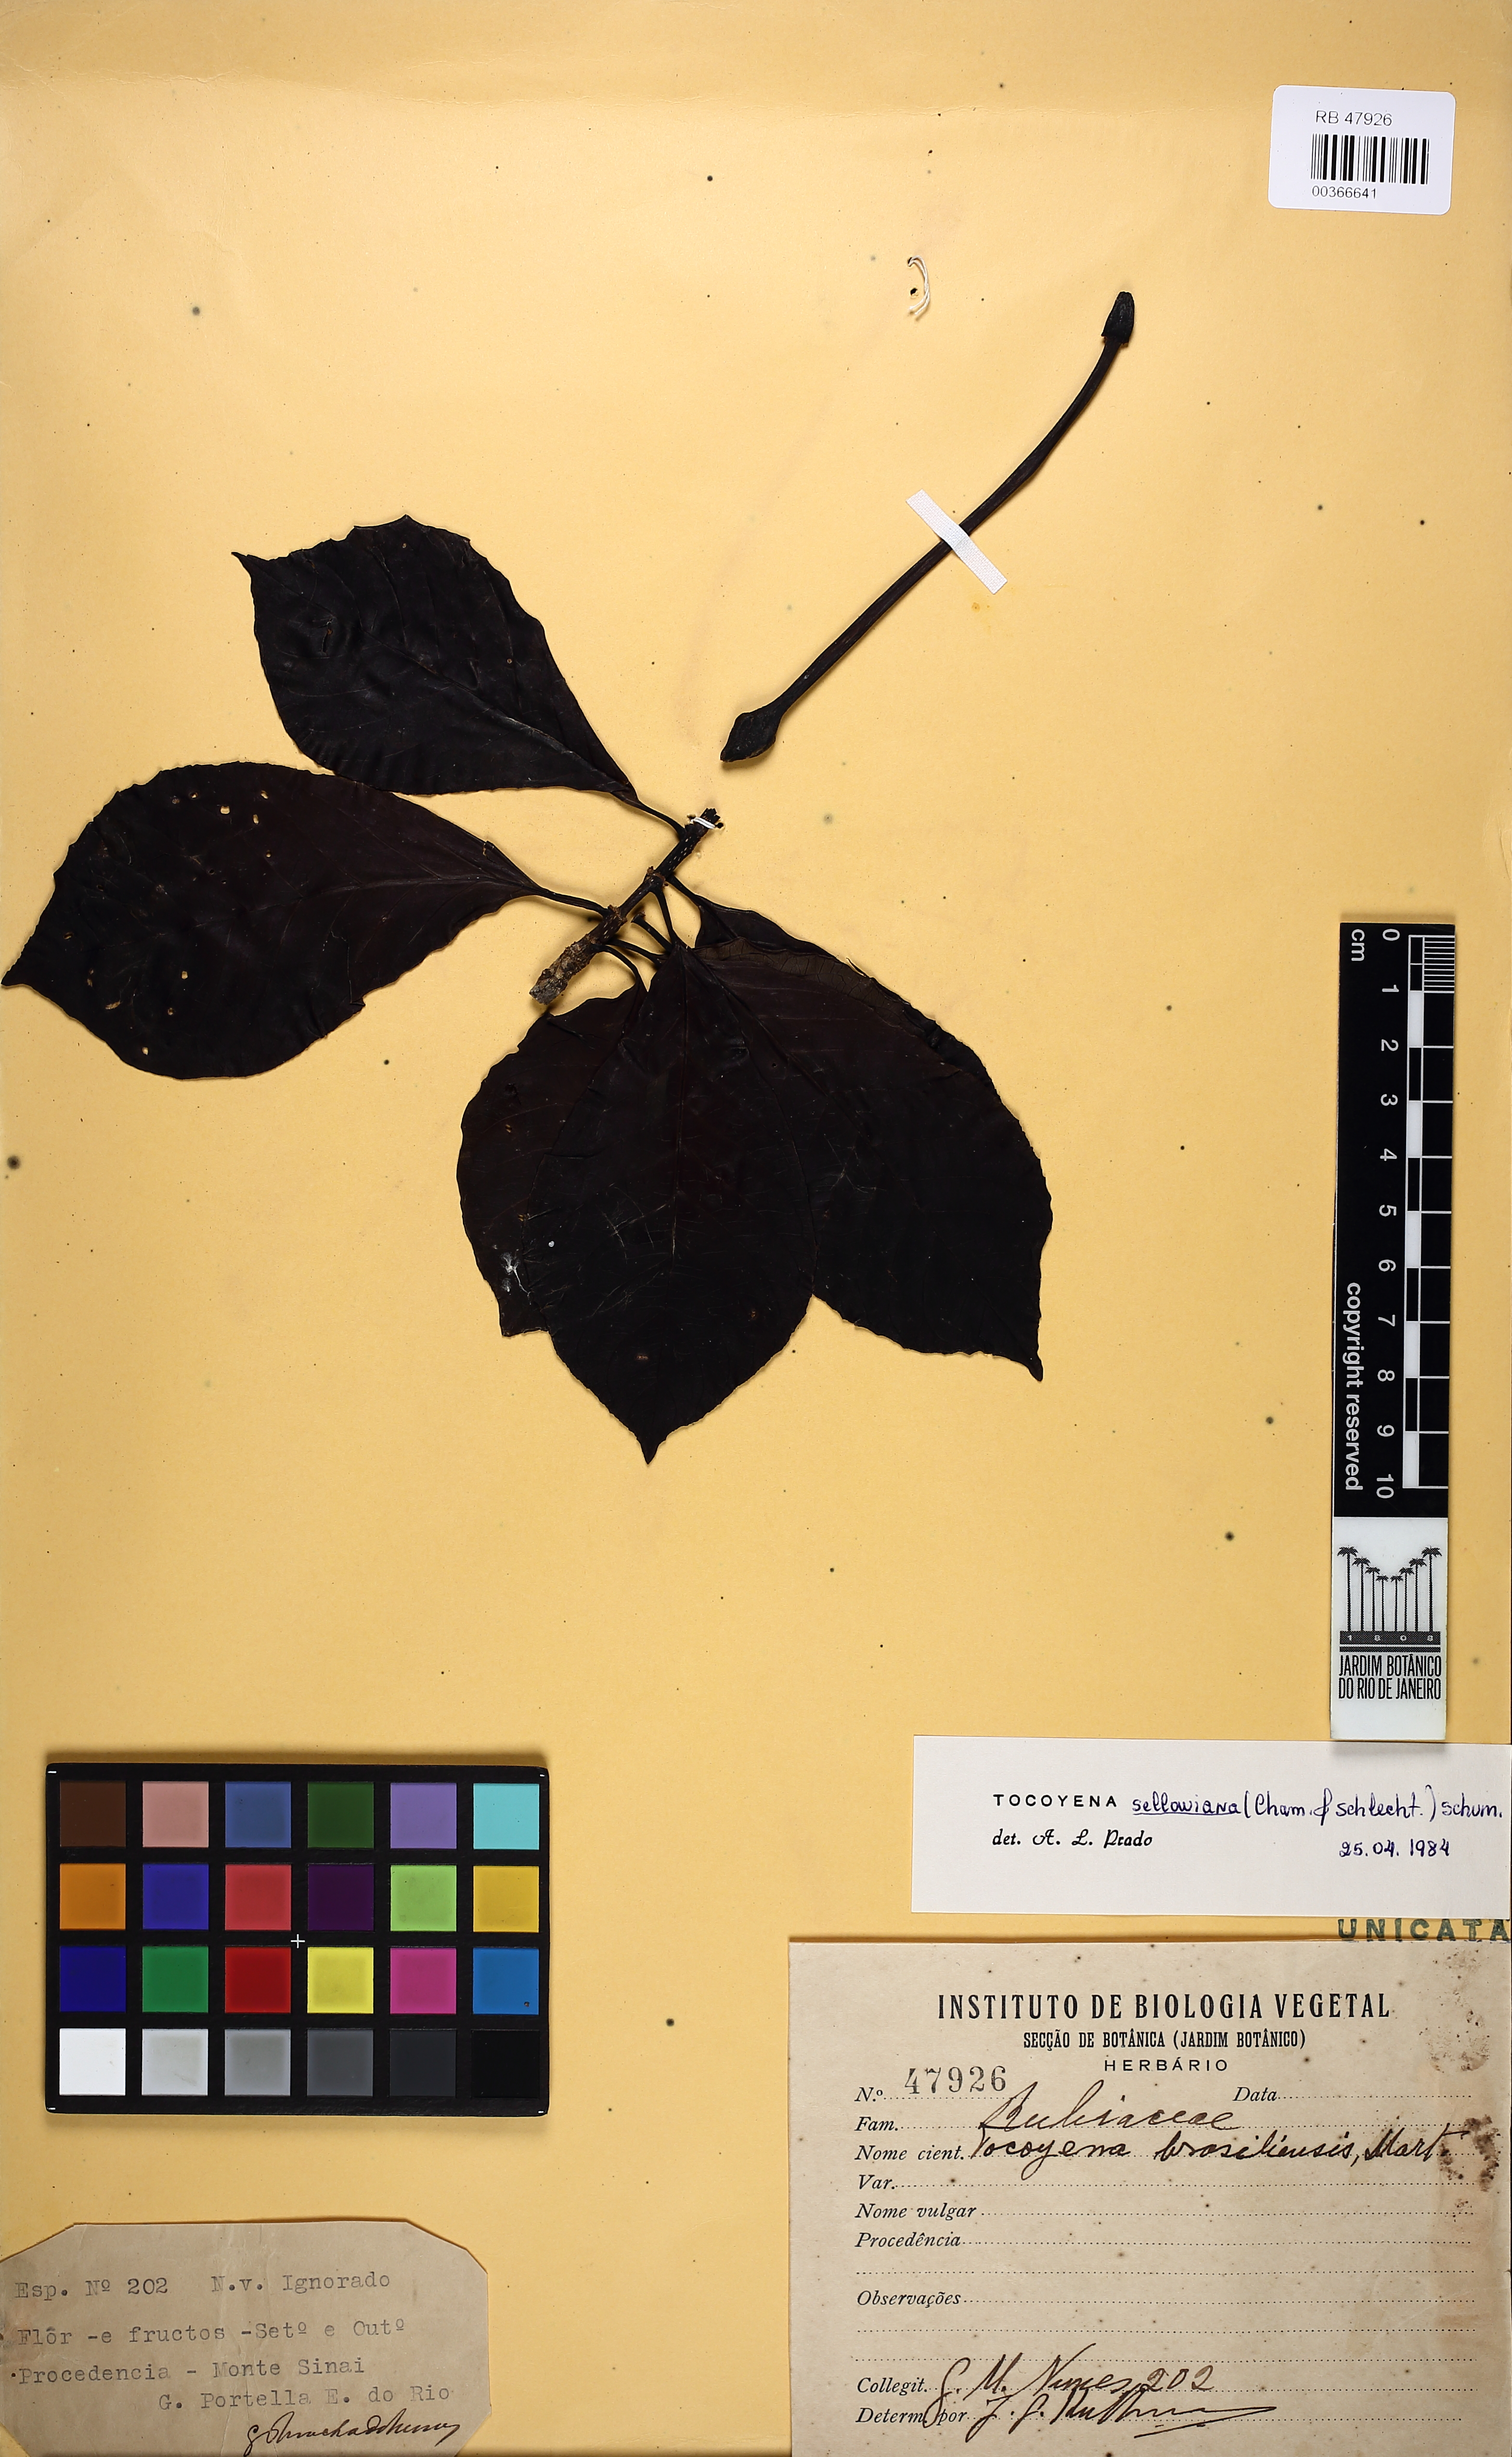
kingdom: Plantae
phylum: Tracheophyta
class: Magnoliopsida
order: Gentianales
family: Rubiaceae
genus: Tocoyena
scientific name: Tocoyena sellowiana
